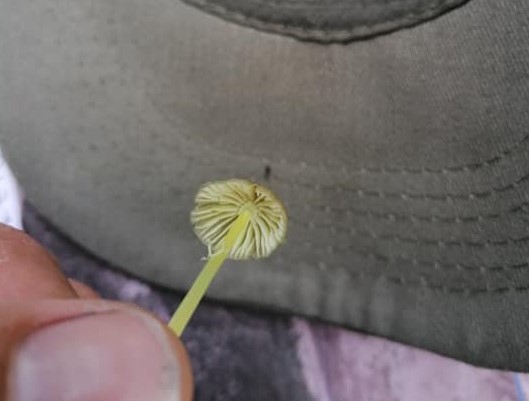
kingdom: Fungi
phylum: Basidiomycota
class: Agaricomycetes
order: Agaricales
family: Mycenaceae
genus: Mycena
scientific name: Mycena epipterygia
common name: gulstokket huesvamp
